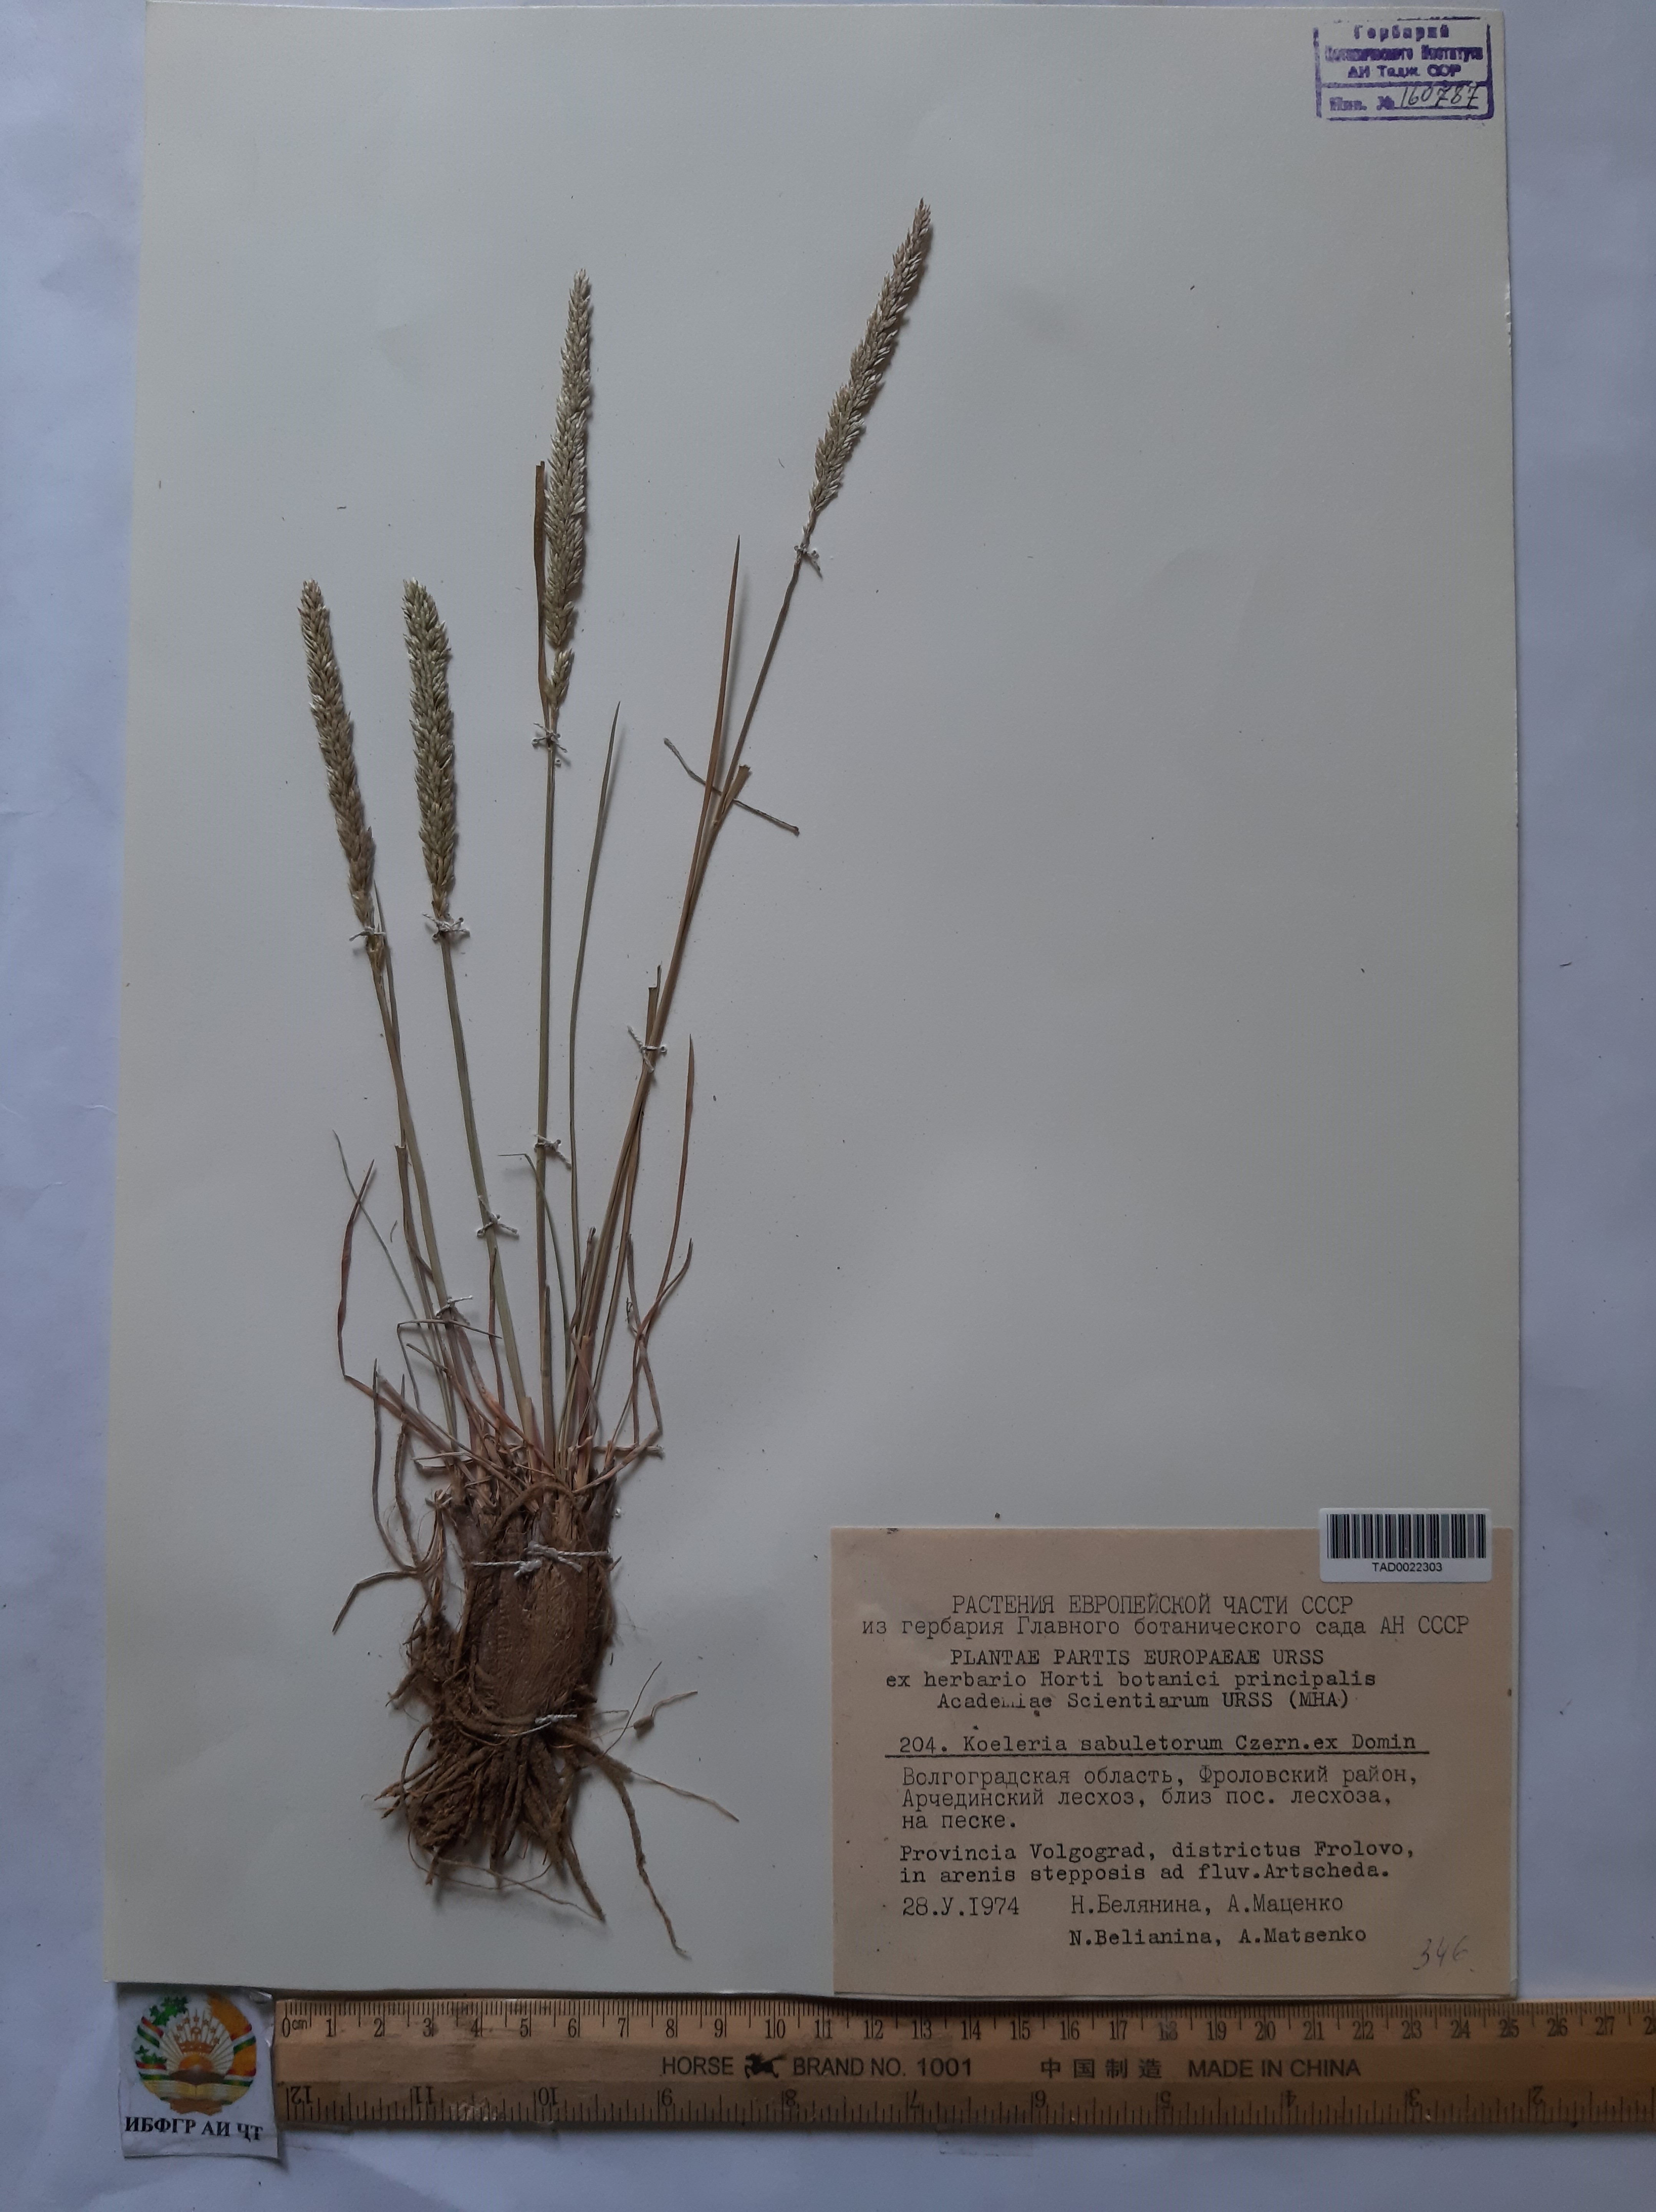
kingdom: Plantae
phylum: Tracheophyta
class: Liliopsida
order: Poales
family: Poaceae
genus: Koeleria
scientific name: Koeleria
